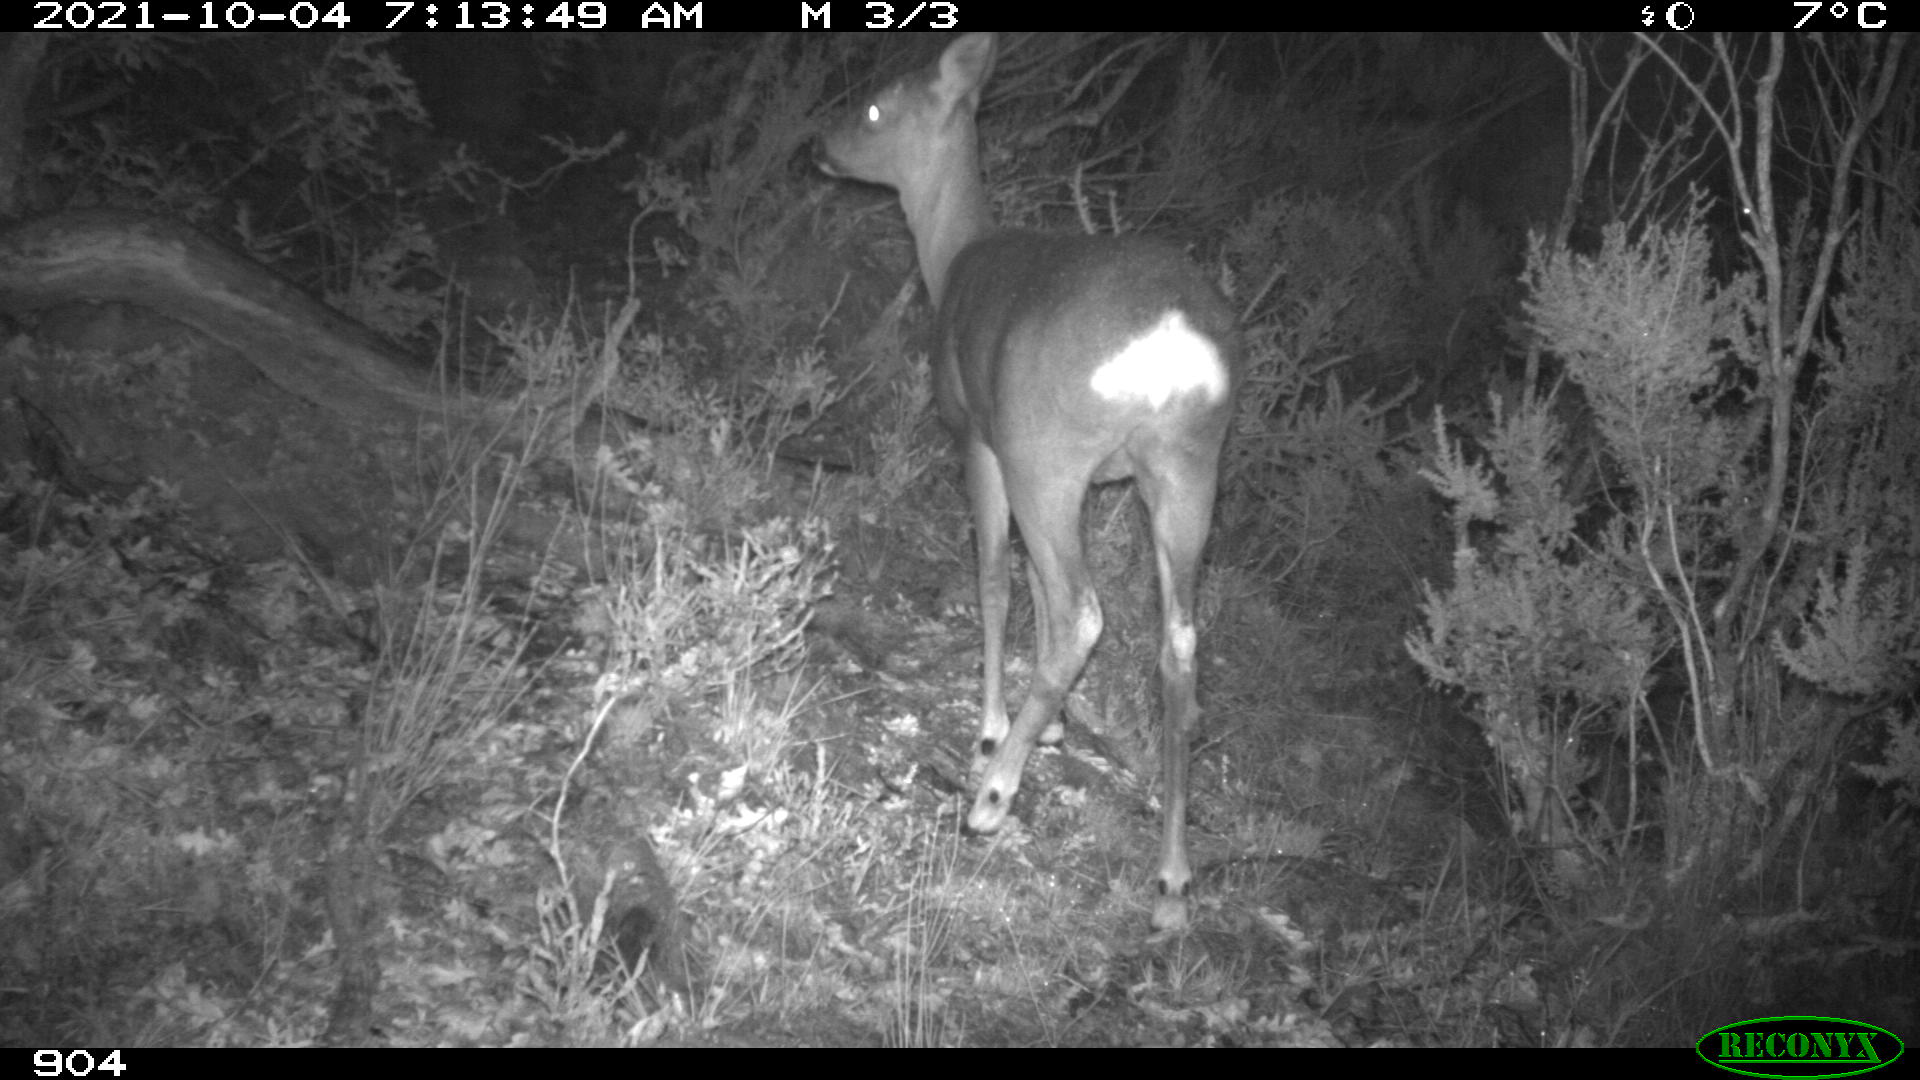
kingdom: Animalia
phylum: Chordata
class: Mammalia
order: Artiodactyla
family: Cervidae
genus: Capreolus
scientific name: Capreolus capreolus
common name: Western roe deer
